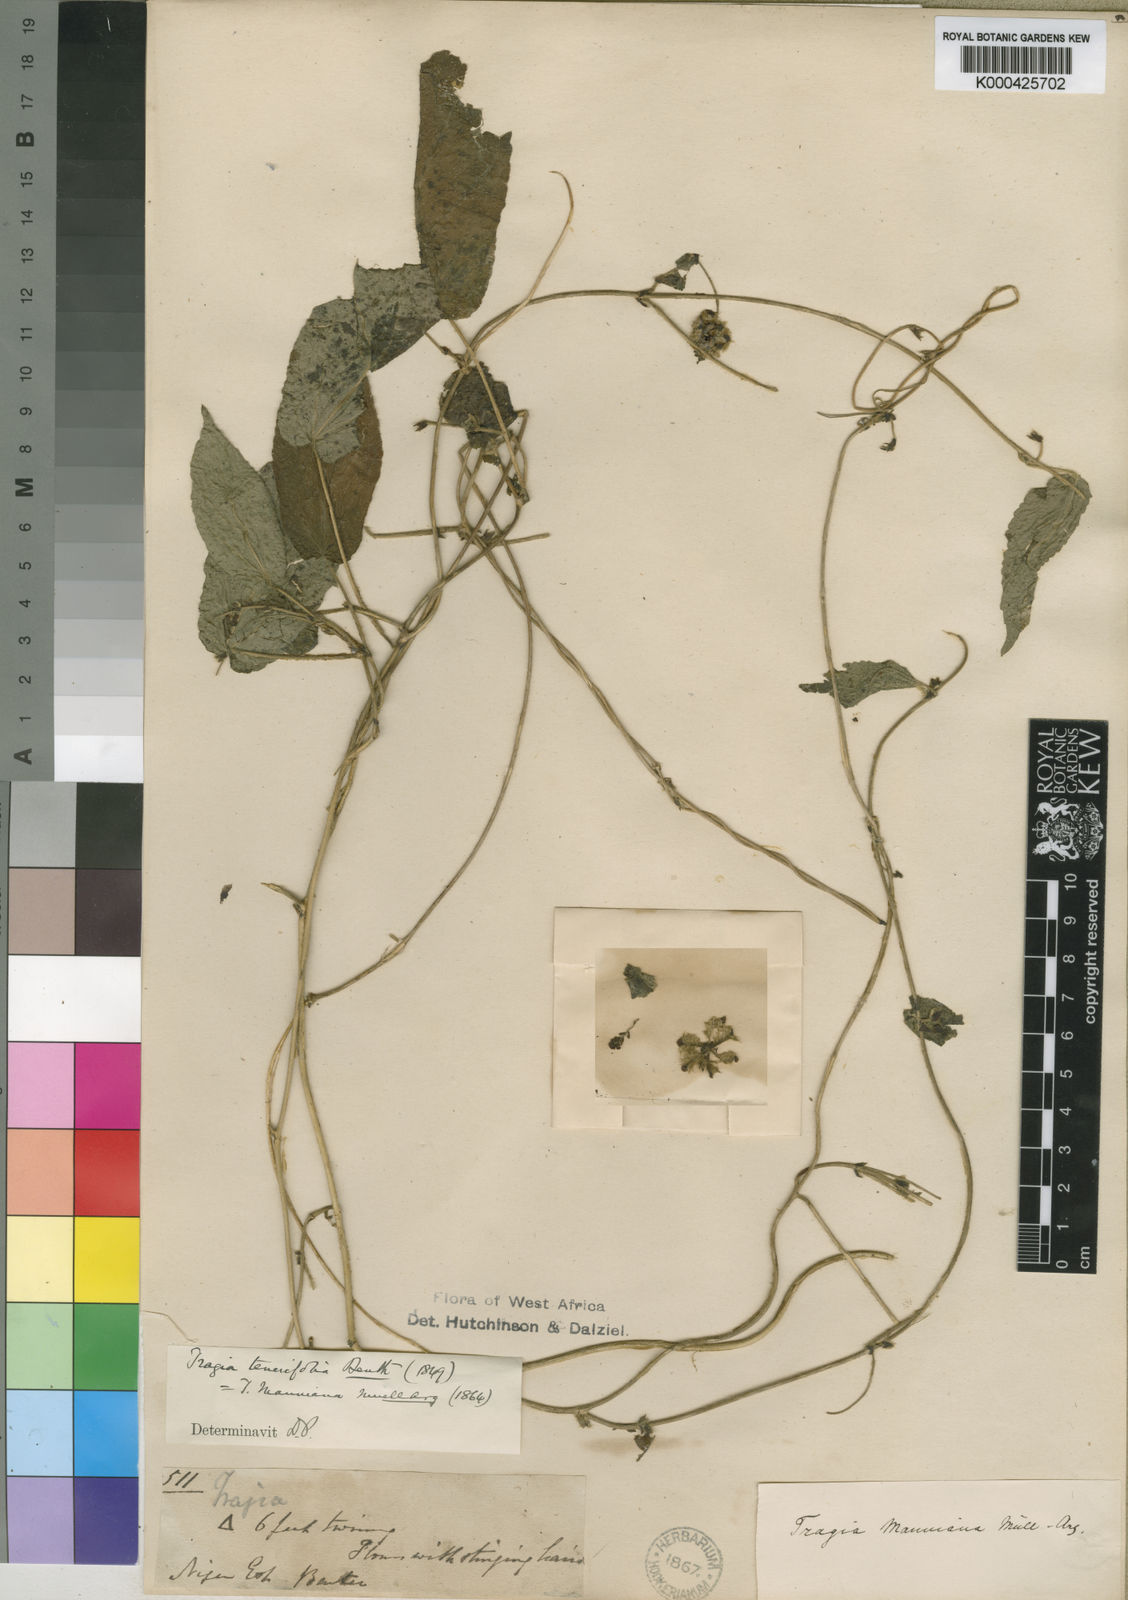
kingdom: Plantae
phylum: Tracheophyta
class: Magnoliopsida
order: Malpighiales
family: Euphorbiaceae
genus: Tragia
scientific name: Tragia tenuifolia
